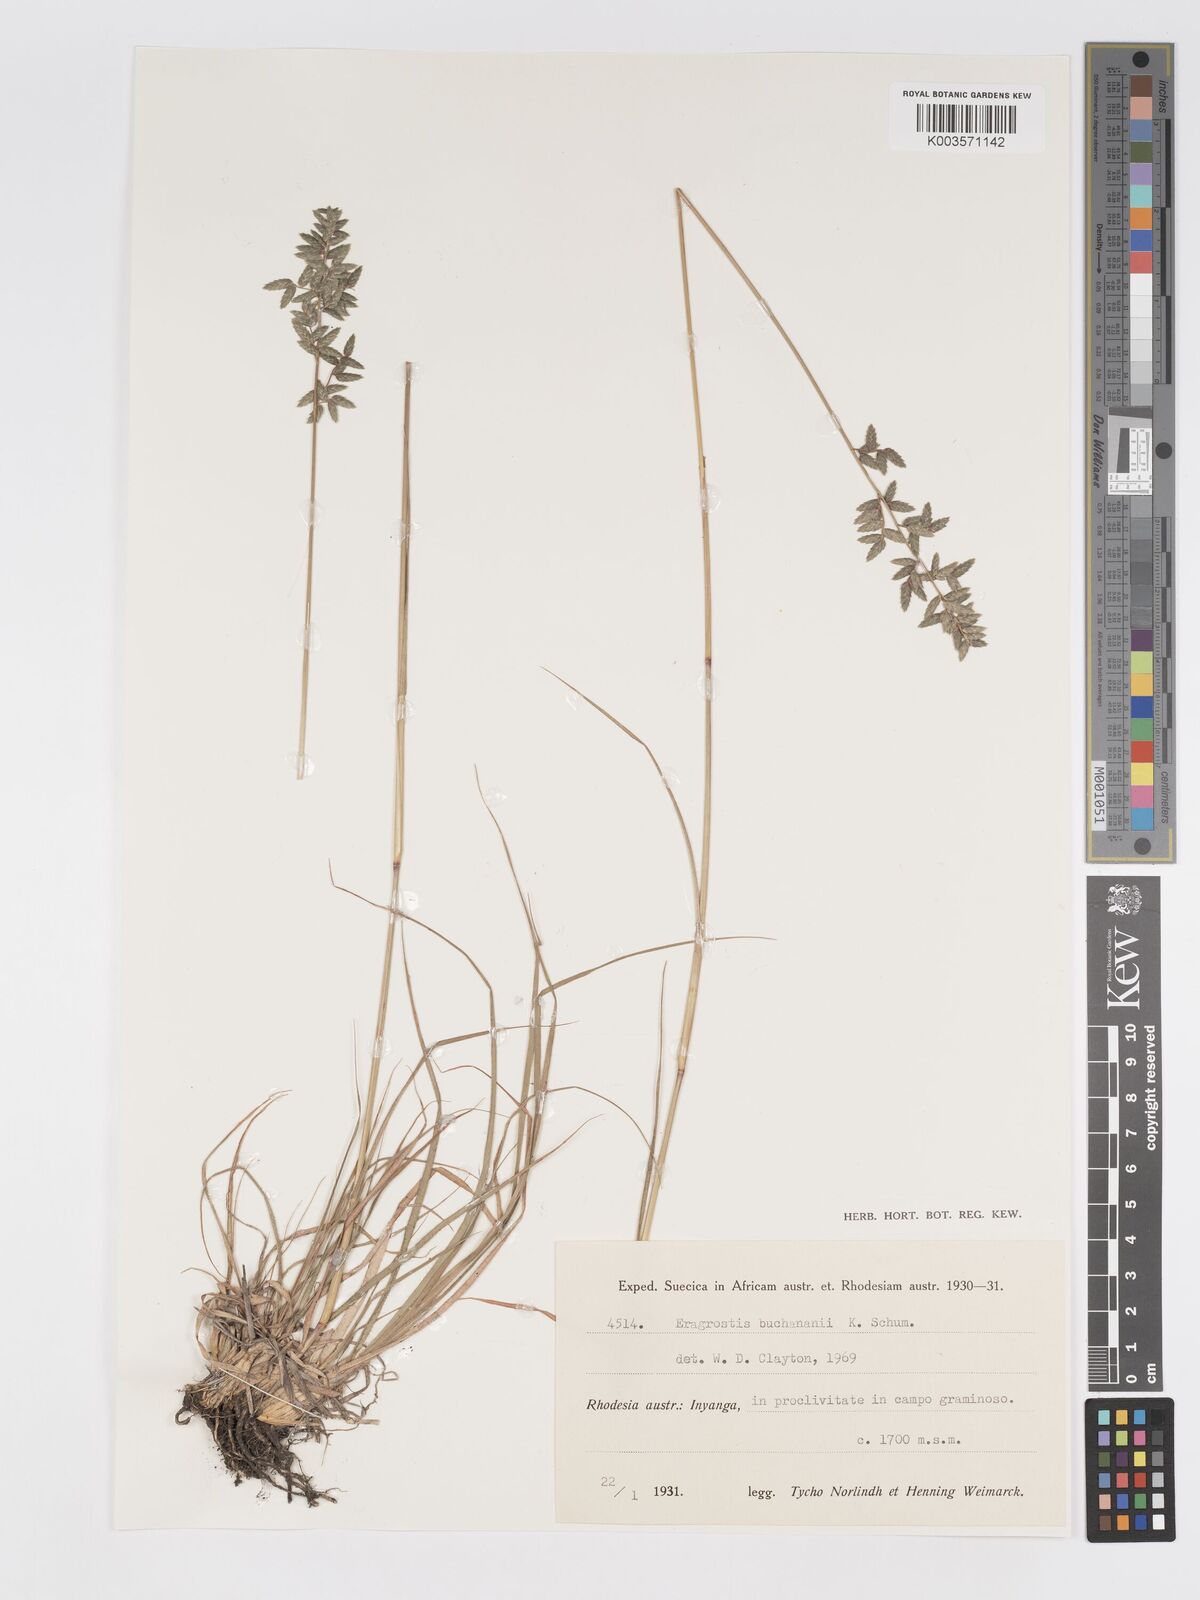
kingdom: Plantae
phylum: Tracheophyta
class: Liliopsida
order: Poales
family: Poaceae
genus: Eragrostis
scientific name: Eragrostis nindensis
